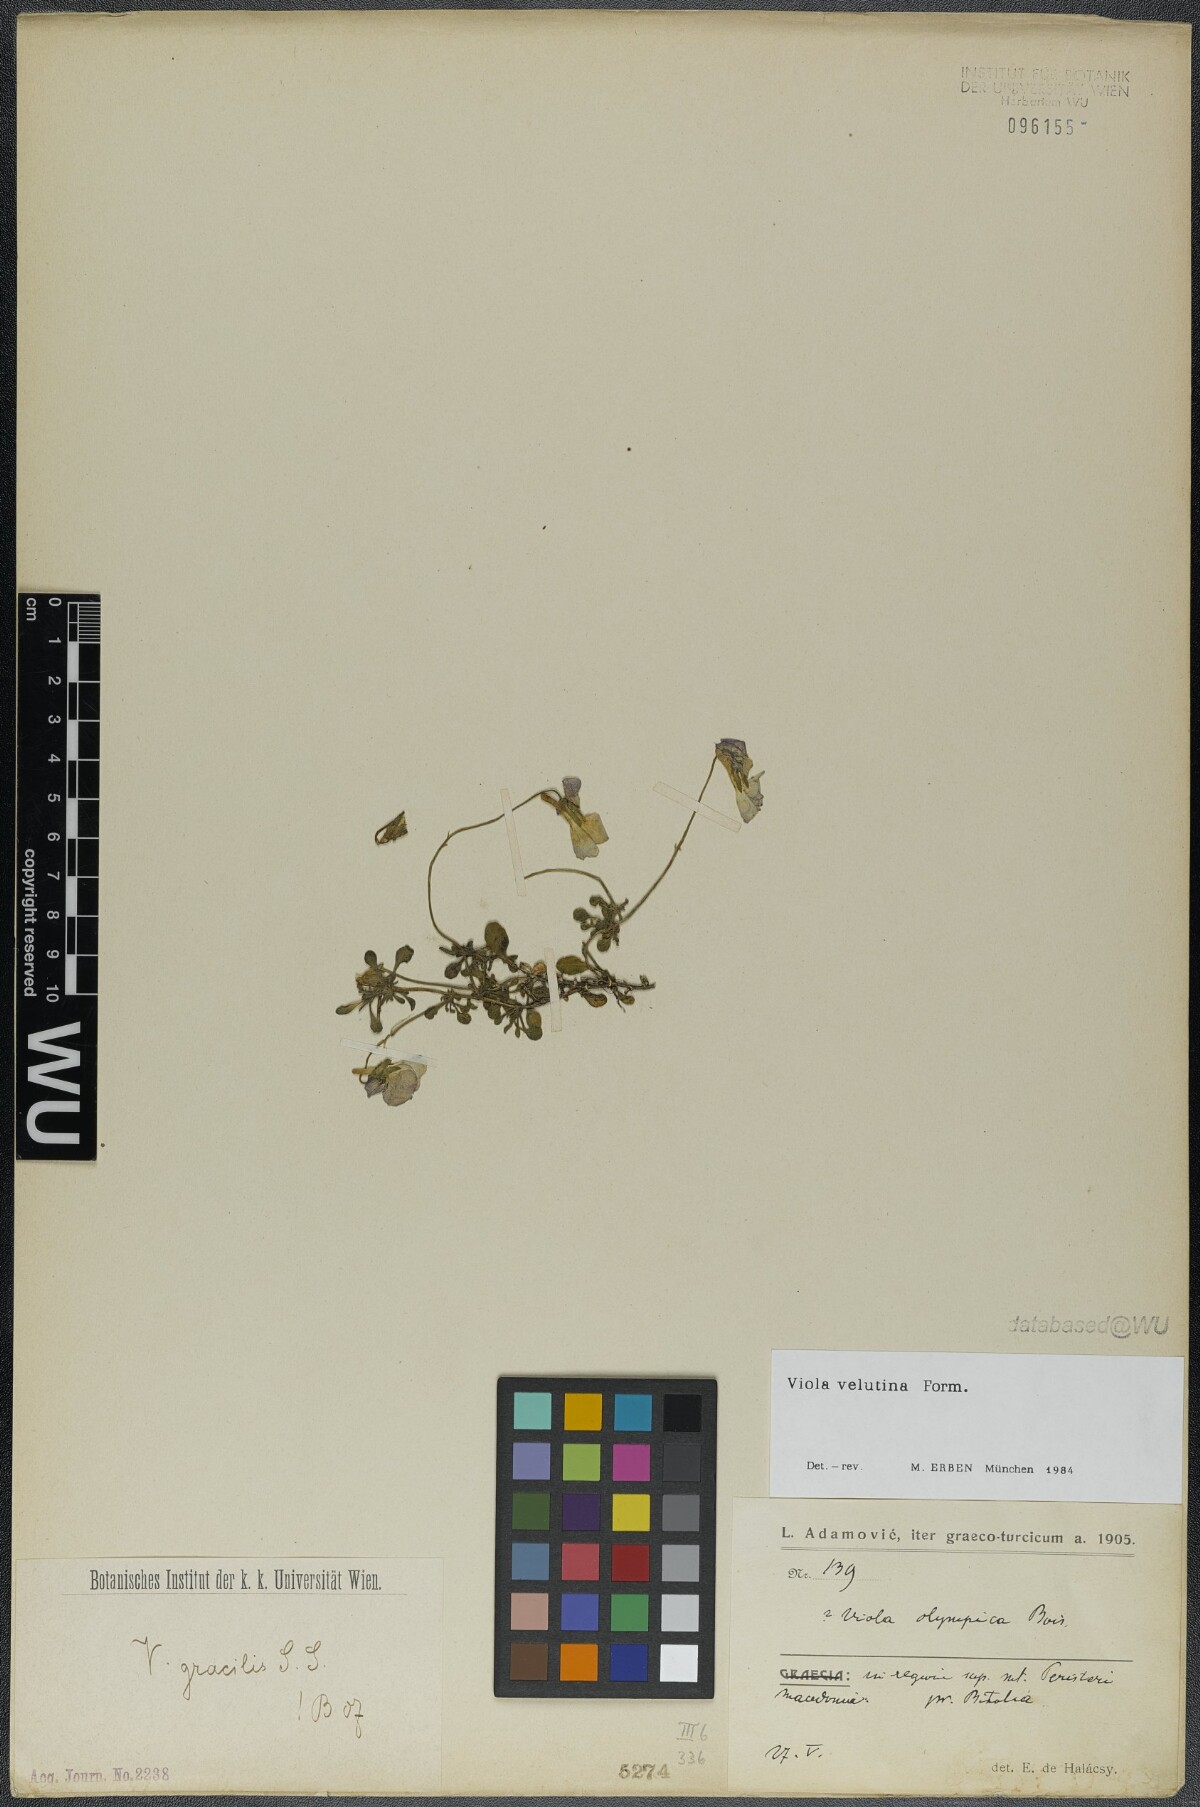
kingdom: Plantae
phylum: Tracheophyta
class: Magnoliopsida
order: Malpighiales
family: Violaceae
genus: Viola
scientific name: Viola velutina
